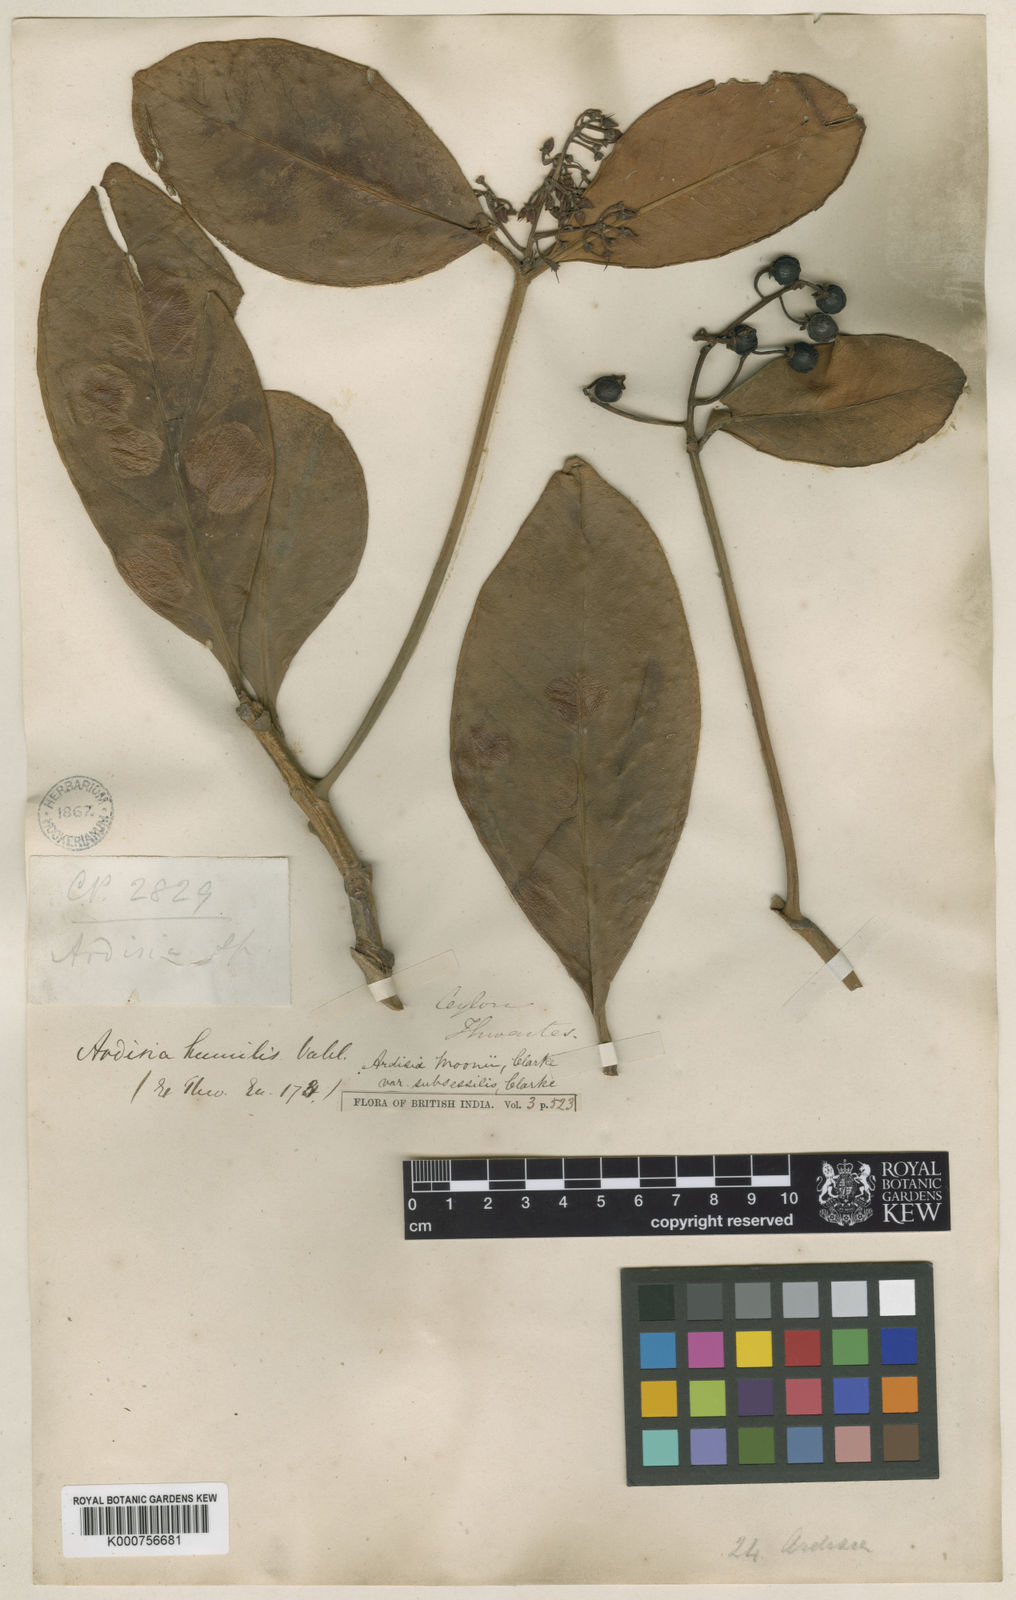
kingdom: Plantae
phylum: Tracheophyta
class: Magnoliopsida
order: Ericales
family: Primulaceae
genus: Ardisia
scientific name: Ardisia willisii
